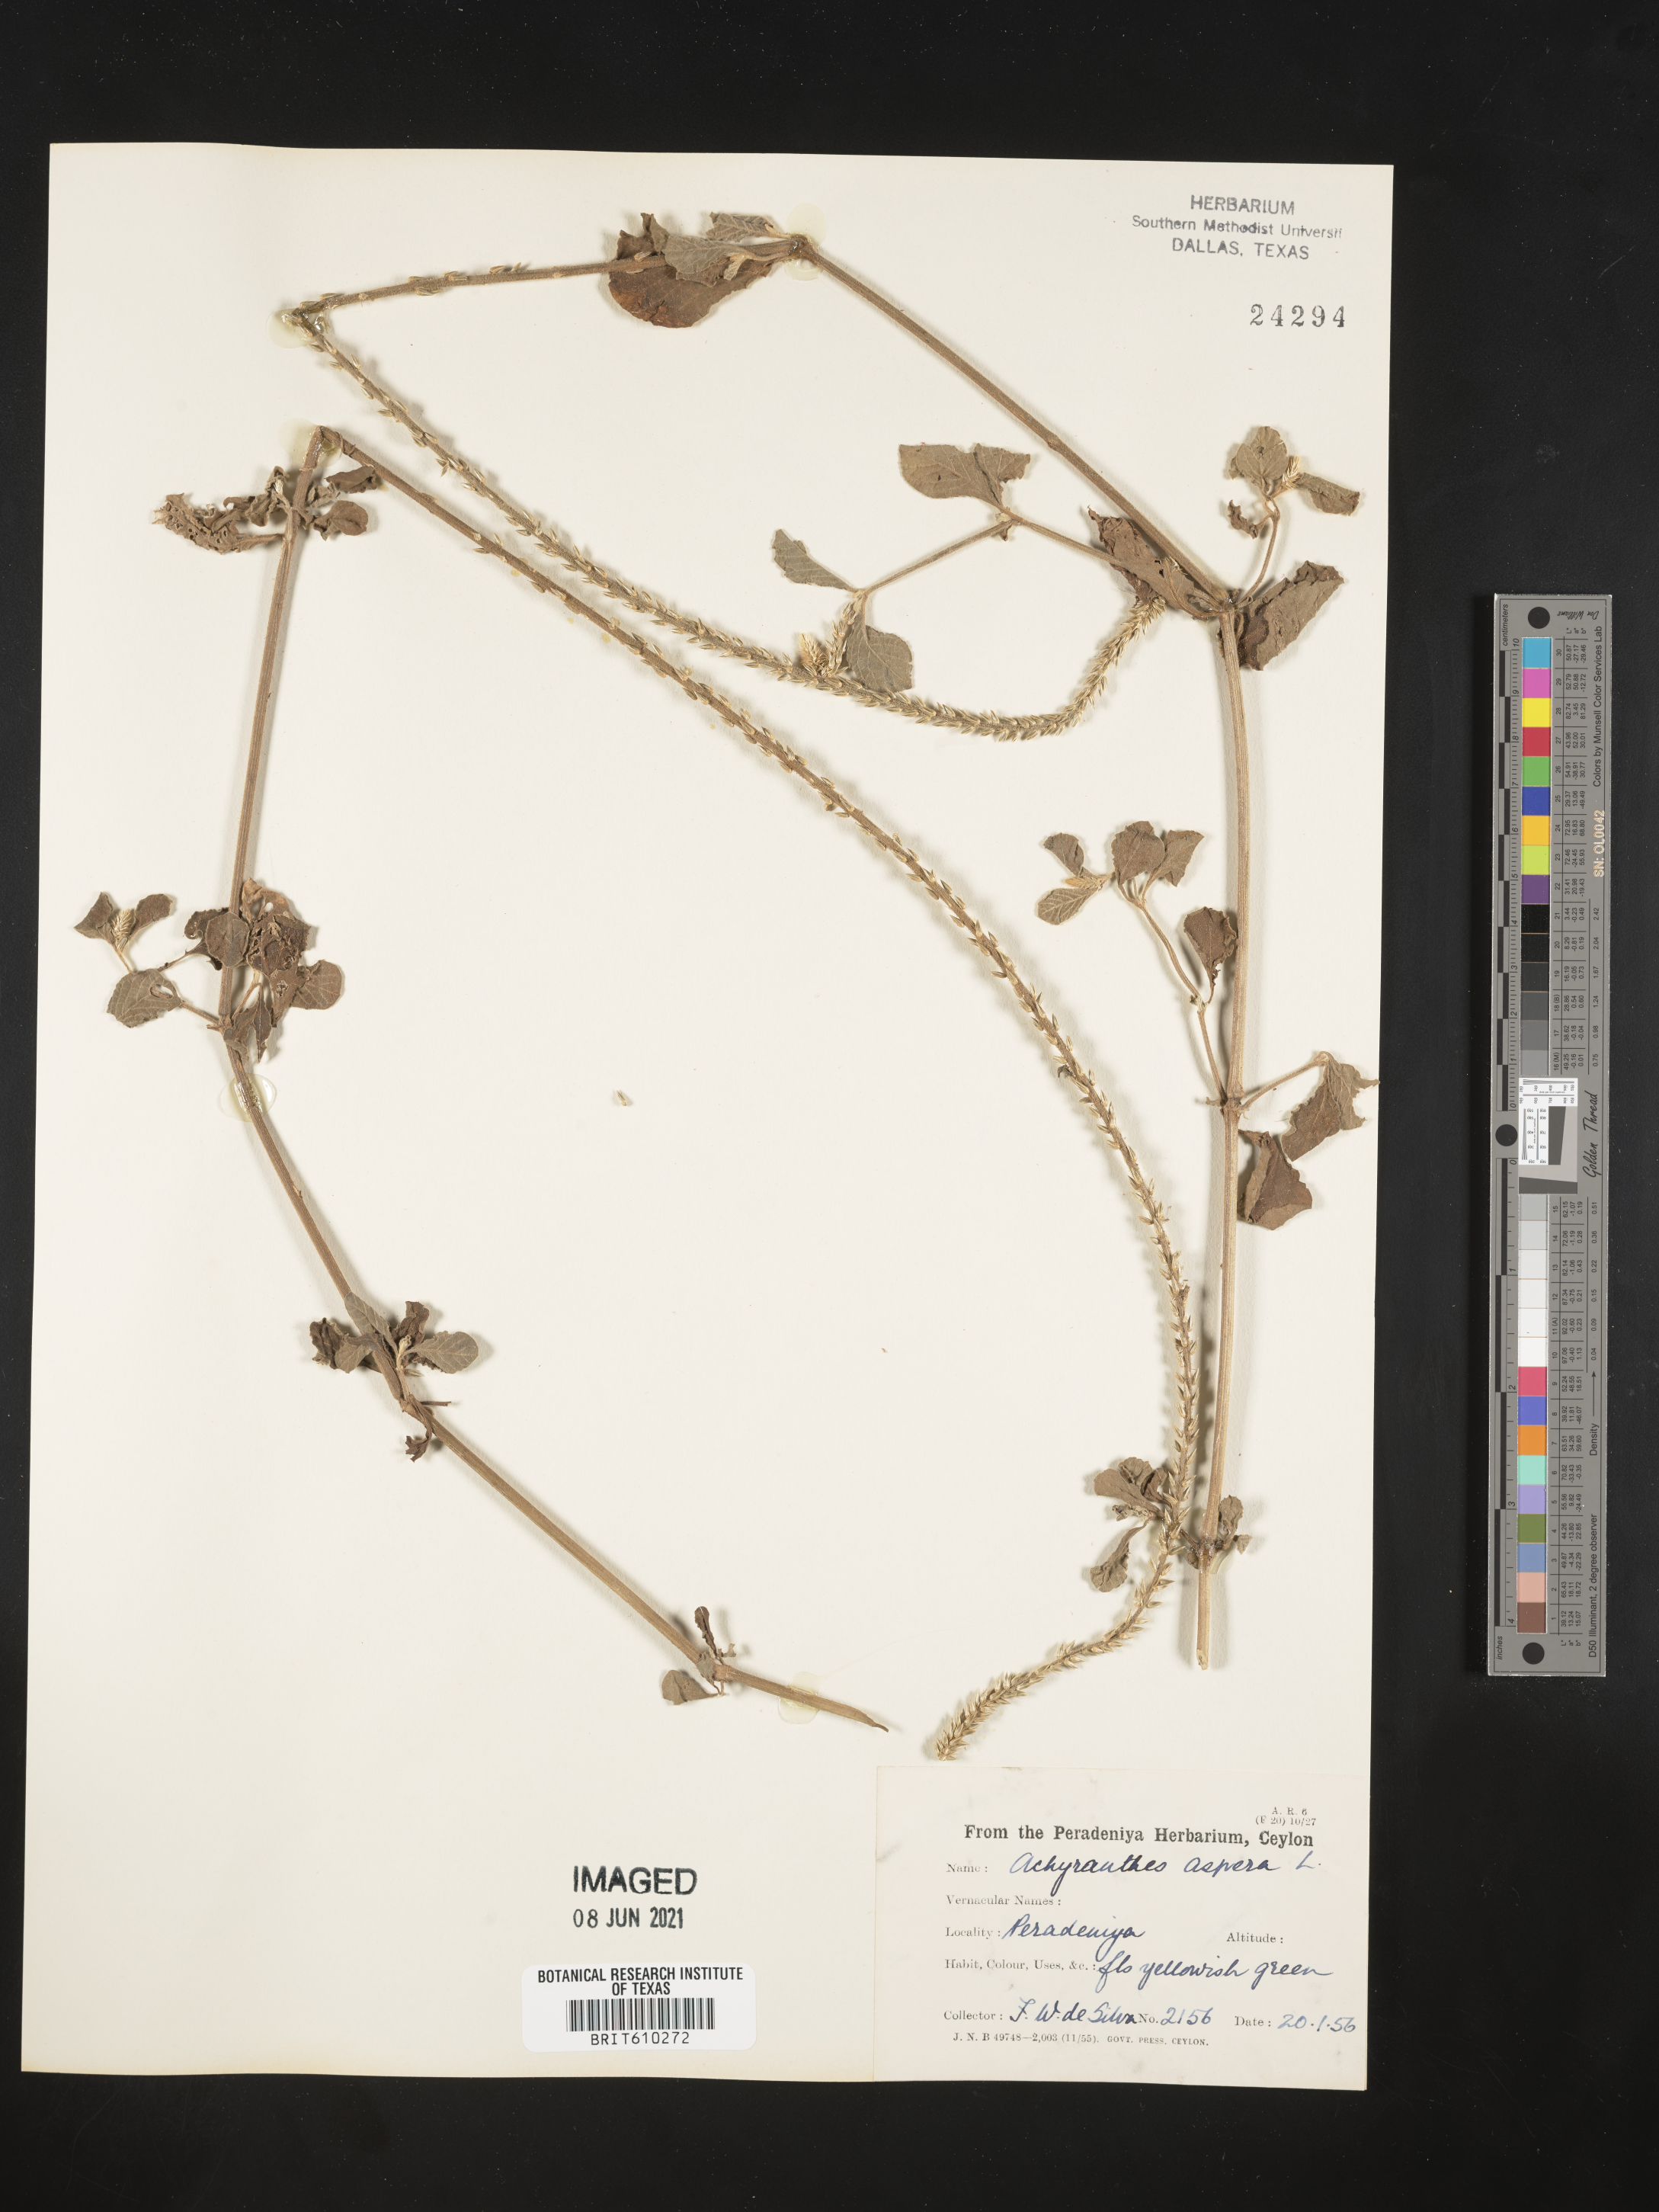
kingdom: Plantae
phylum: Tracheophyta
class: Magnoliopsida
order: Caryophyllales
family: Amaranthaceae
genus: Achyranthes
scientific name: Achyranthes aspera
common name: Devil's horsewhip
